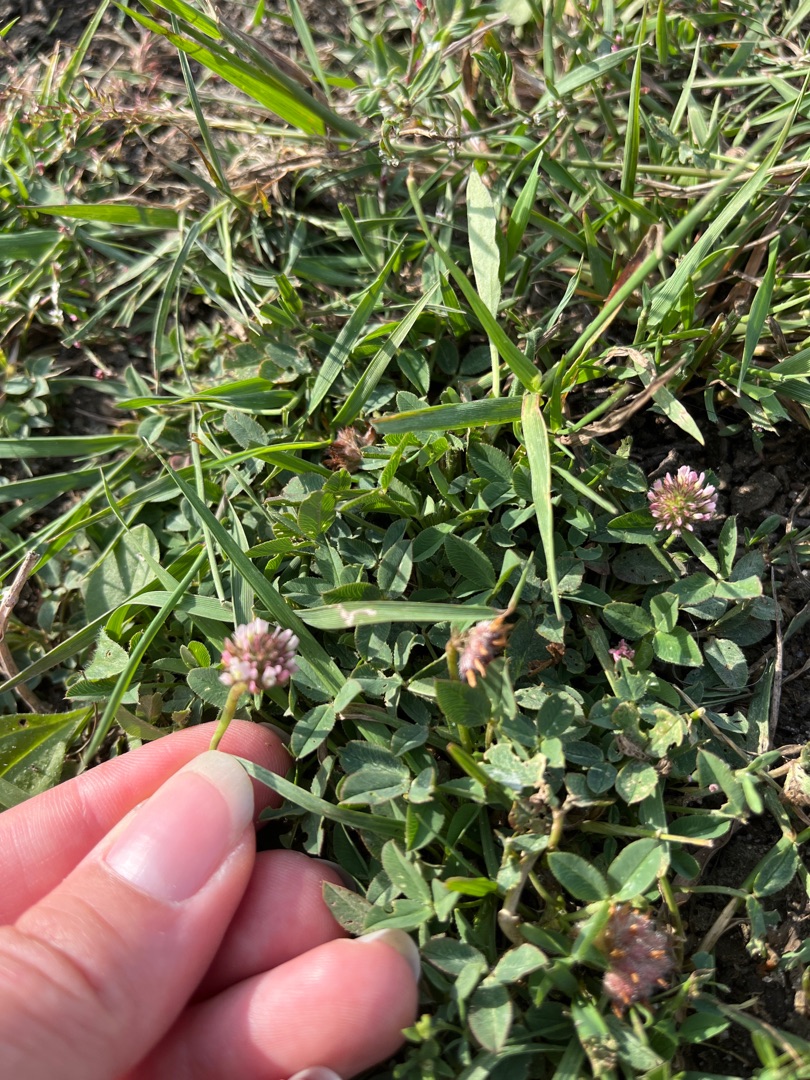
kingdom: Plantae
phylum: Tracheophyta
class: Magnoliopsida
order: Fabales
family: Fabaceae
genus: Trifolium
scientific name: Trifolium fragiferum
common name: Jordbær-kløver
